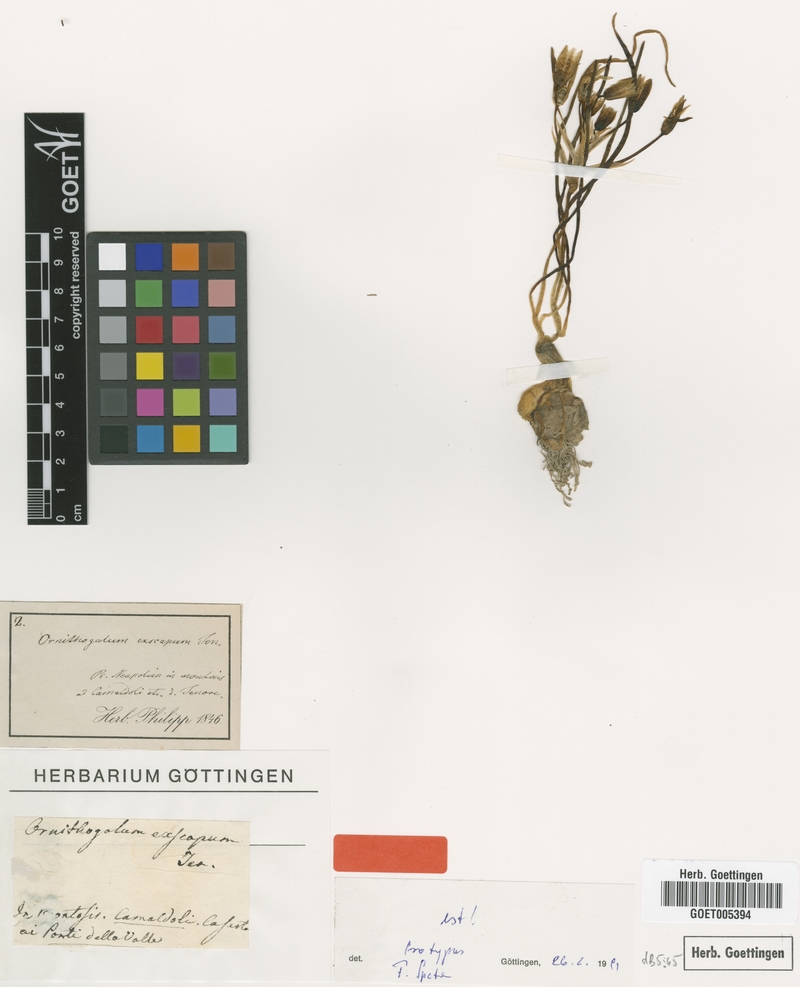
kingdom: Plantae
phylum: Tracheophyta
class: Liliopsida
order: Asparagales
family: Asparagaceae
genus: Ornithogalum
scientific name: Ornithogalum exscapum
